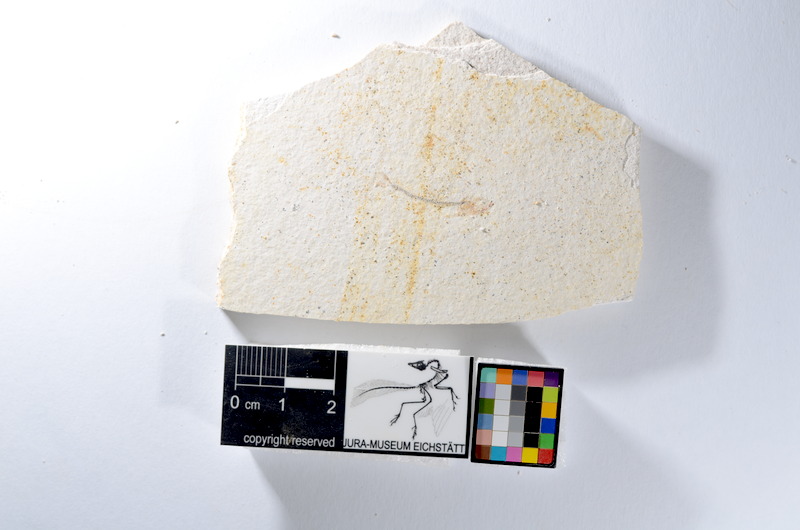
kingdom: Animalia
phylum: Chordata
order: Salmoniformes
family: Orthogonikleithridae
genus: Orthogonikleithrus
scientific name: Orthogonikleithrus hoelli
